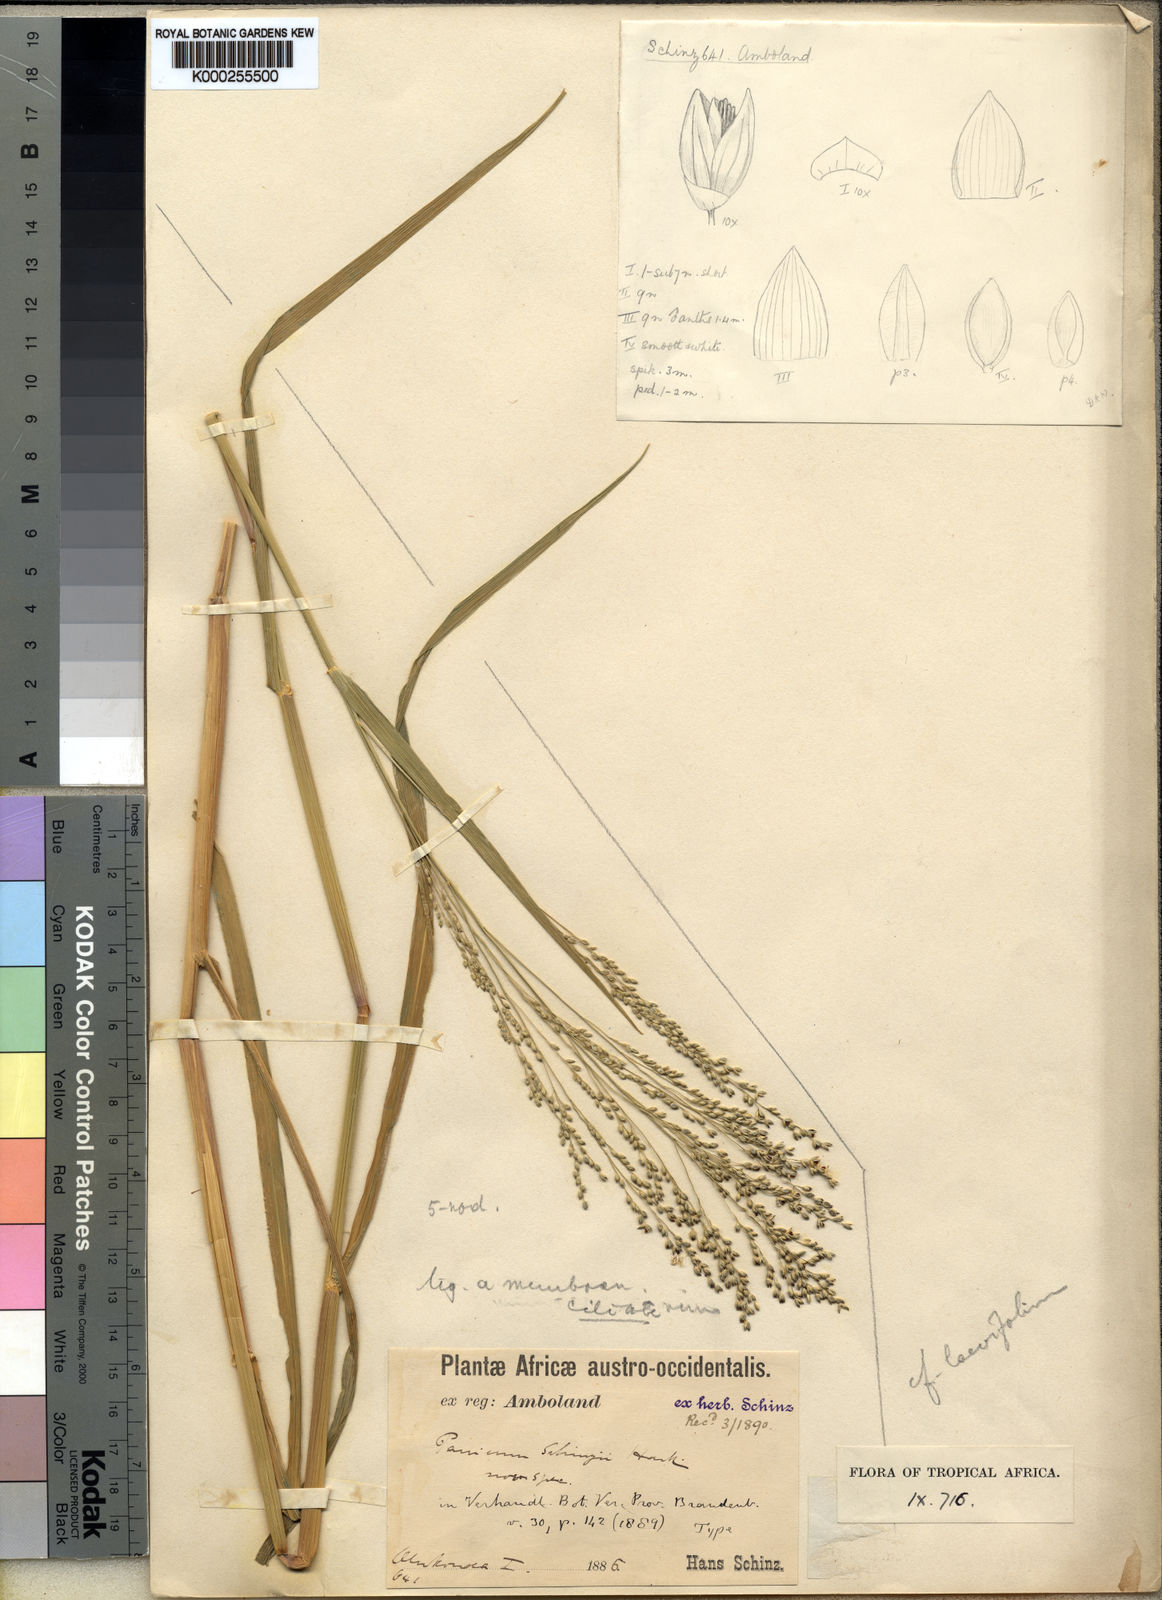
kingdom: Plantae
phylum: Tracheophyta
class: Liliopsida
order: Poales
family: Poaceae
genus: Panicum
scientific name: Panicum
